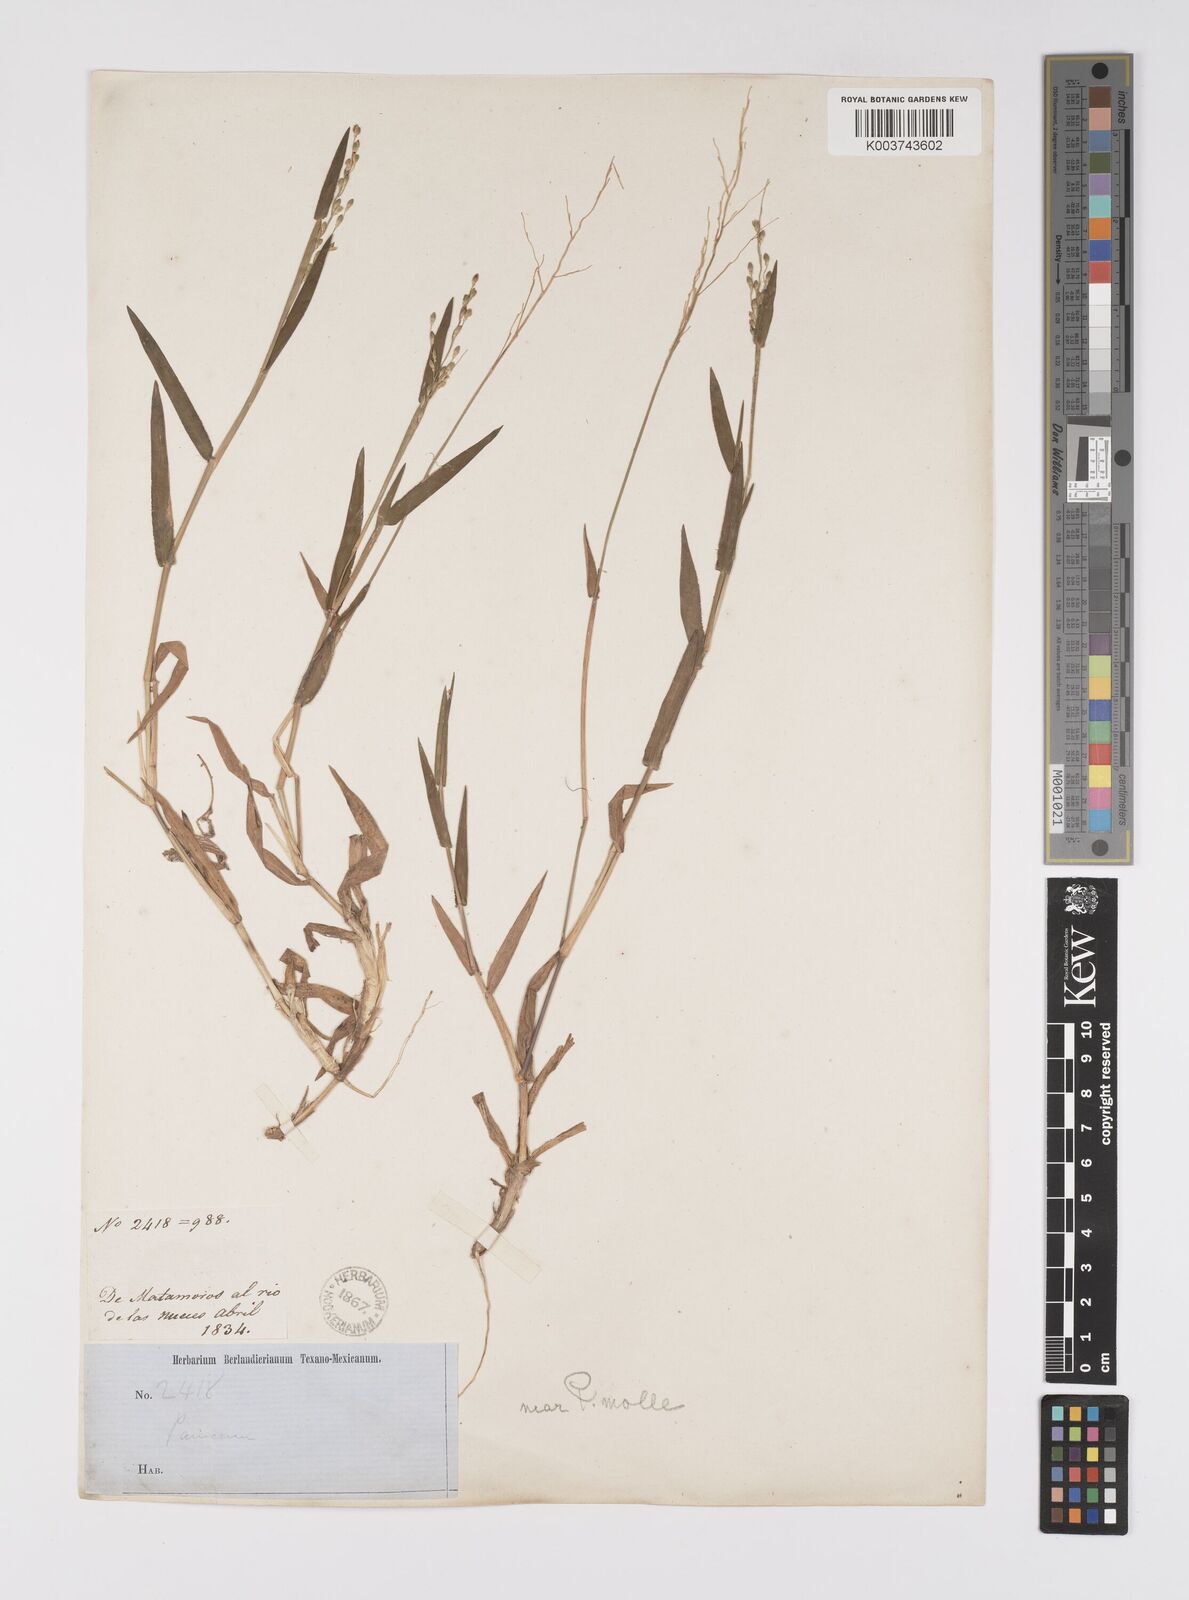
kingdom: Plantae
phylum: Tracheophyta
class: Liliopsida
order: Poales
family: Poaceae
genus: Urochloa
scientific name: Urochloa mollis
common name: Grass
